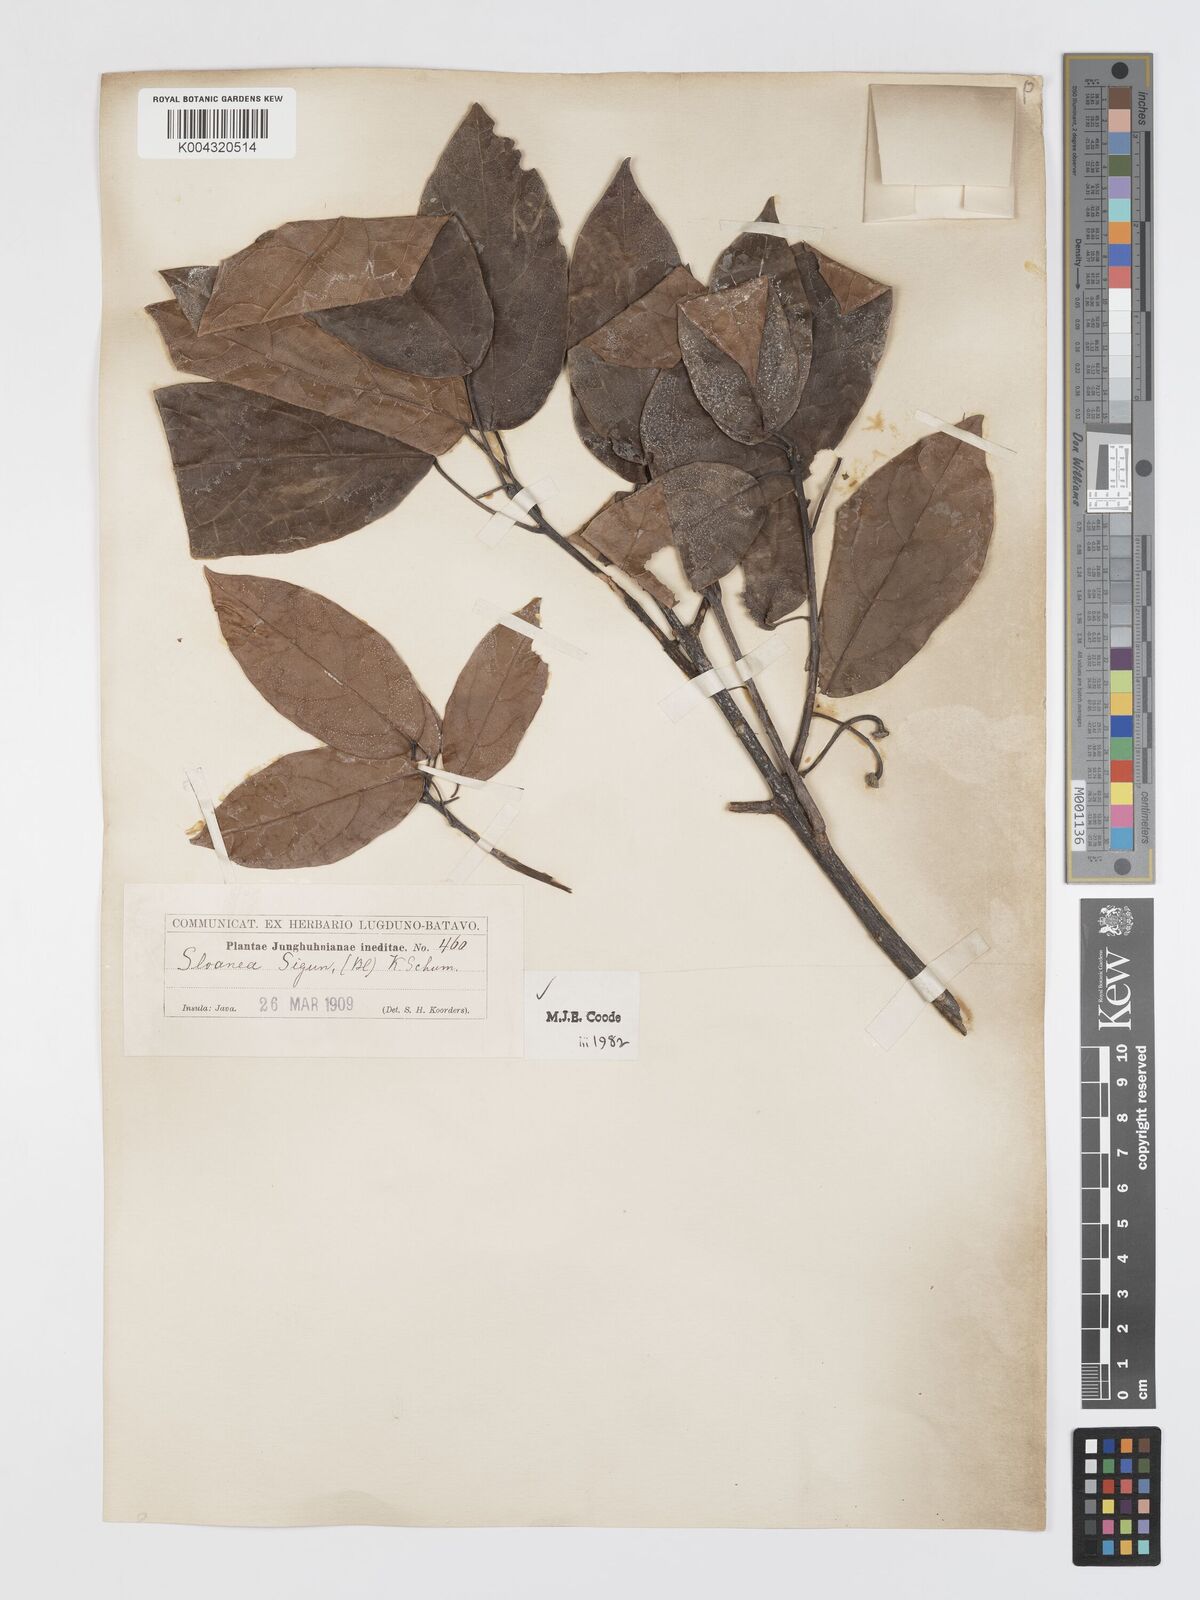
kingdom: Plantae
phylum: Tracheophyta
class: Magnoliopsida
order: Oxalidales
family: Elaeocarpaceae
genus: Sloanea
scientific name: Sloanea sigun
